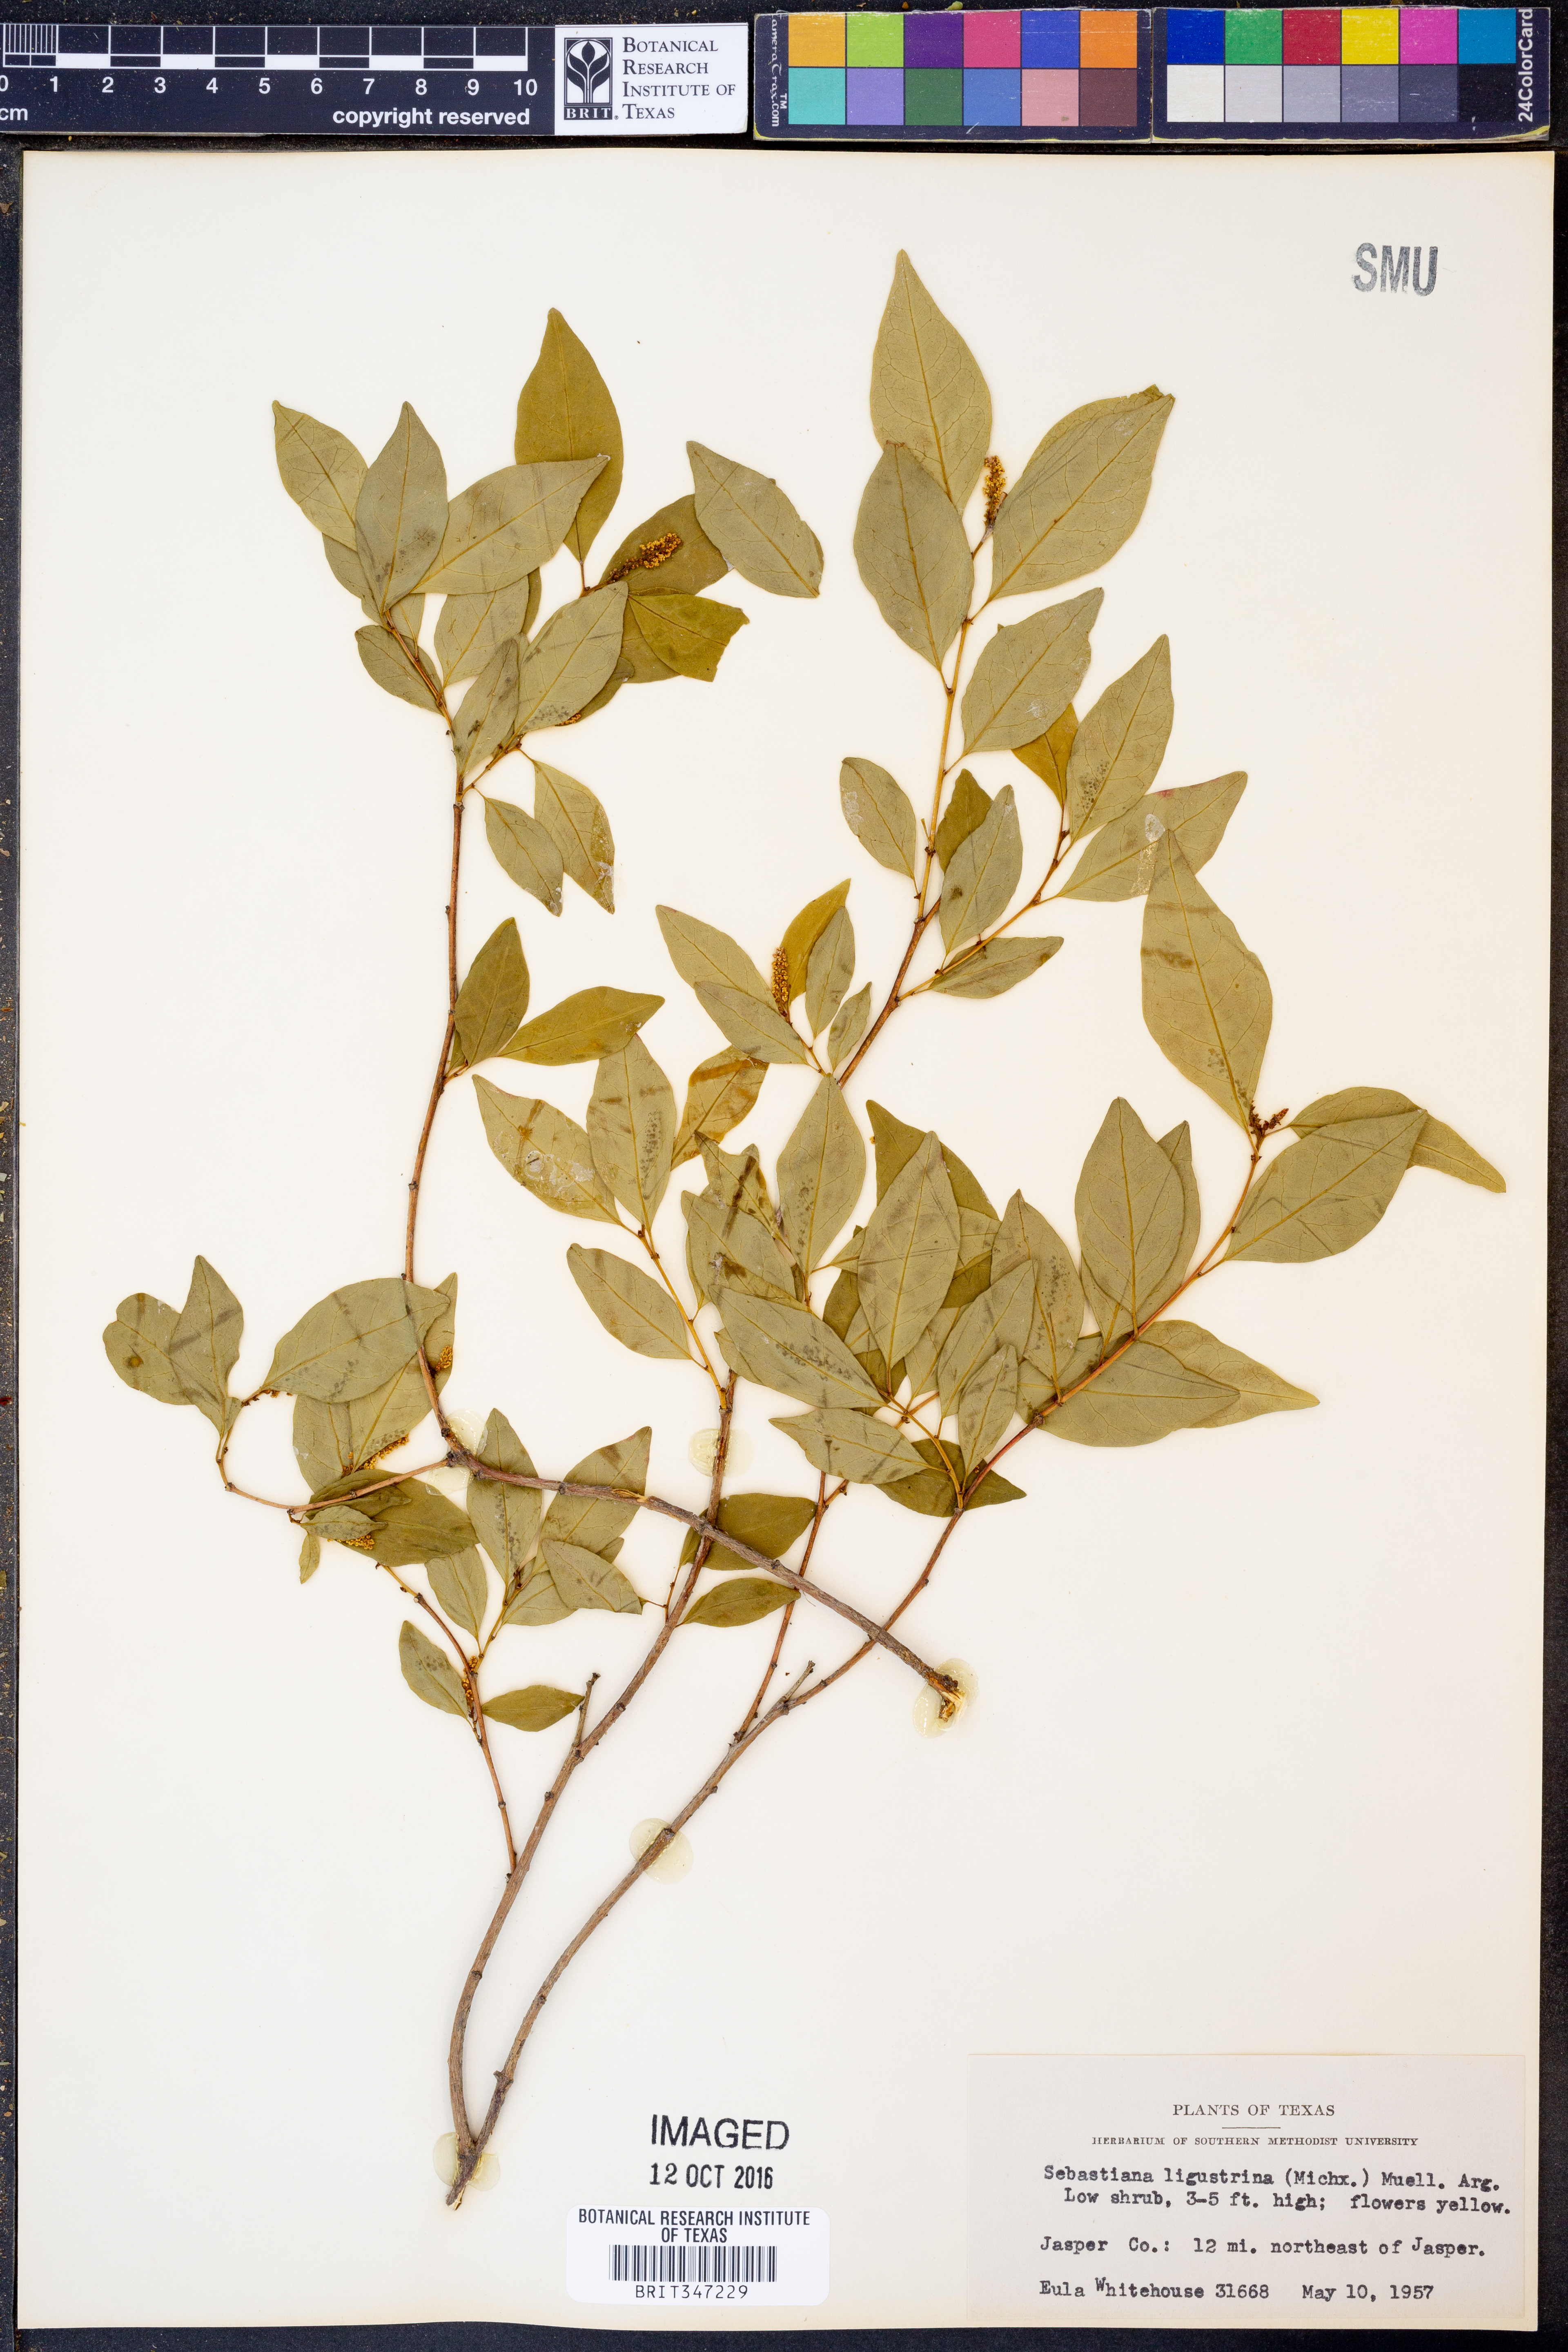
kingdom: Plantae
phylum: Tracheophyta
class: Magnoliopsida
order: Malpighiales
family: Euphorbiaceae
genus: Ditrysinia
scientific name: Ditrysinia fruticosa
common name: Gulf sebastian-bush
